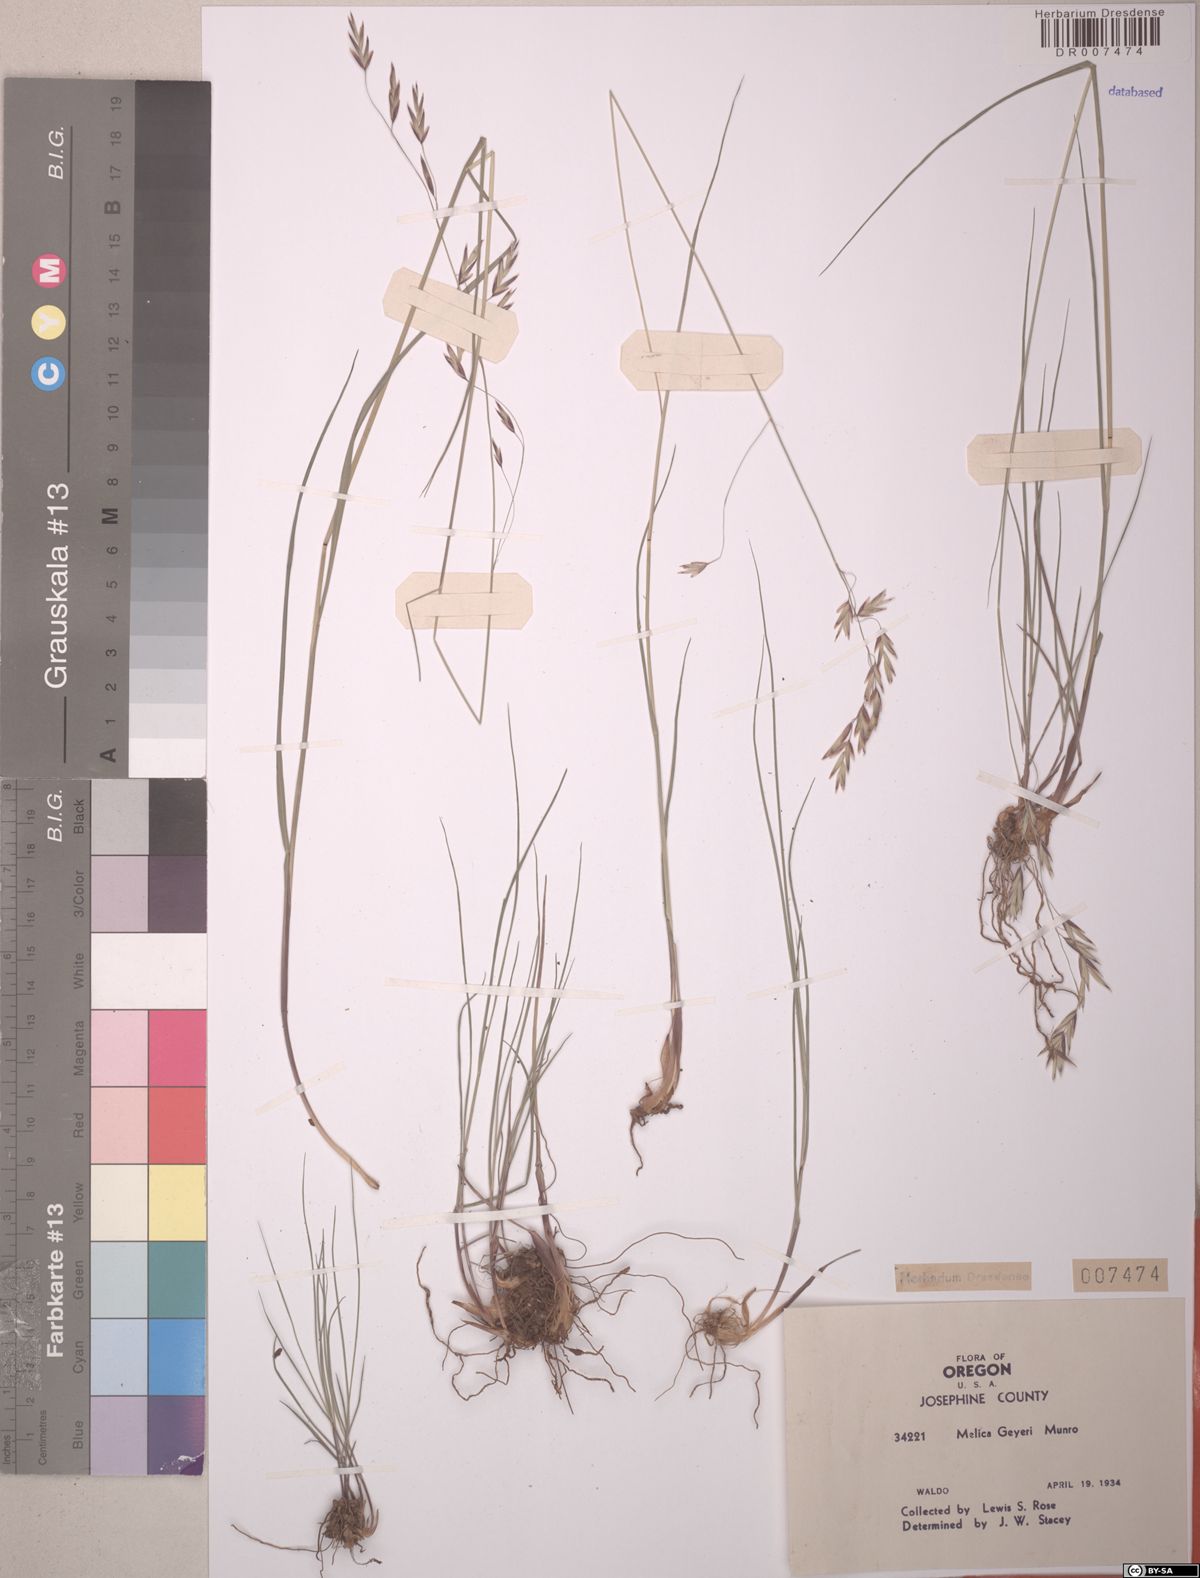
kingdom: Plantae
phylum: Tracheophyta
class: Liliopsida
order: Poales
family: Poaceae
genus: Melica
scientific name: Melica geyeri
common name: Geyer's oniongrass
